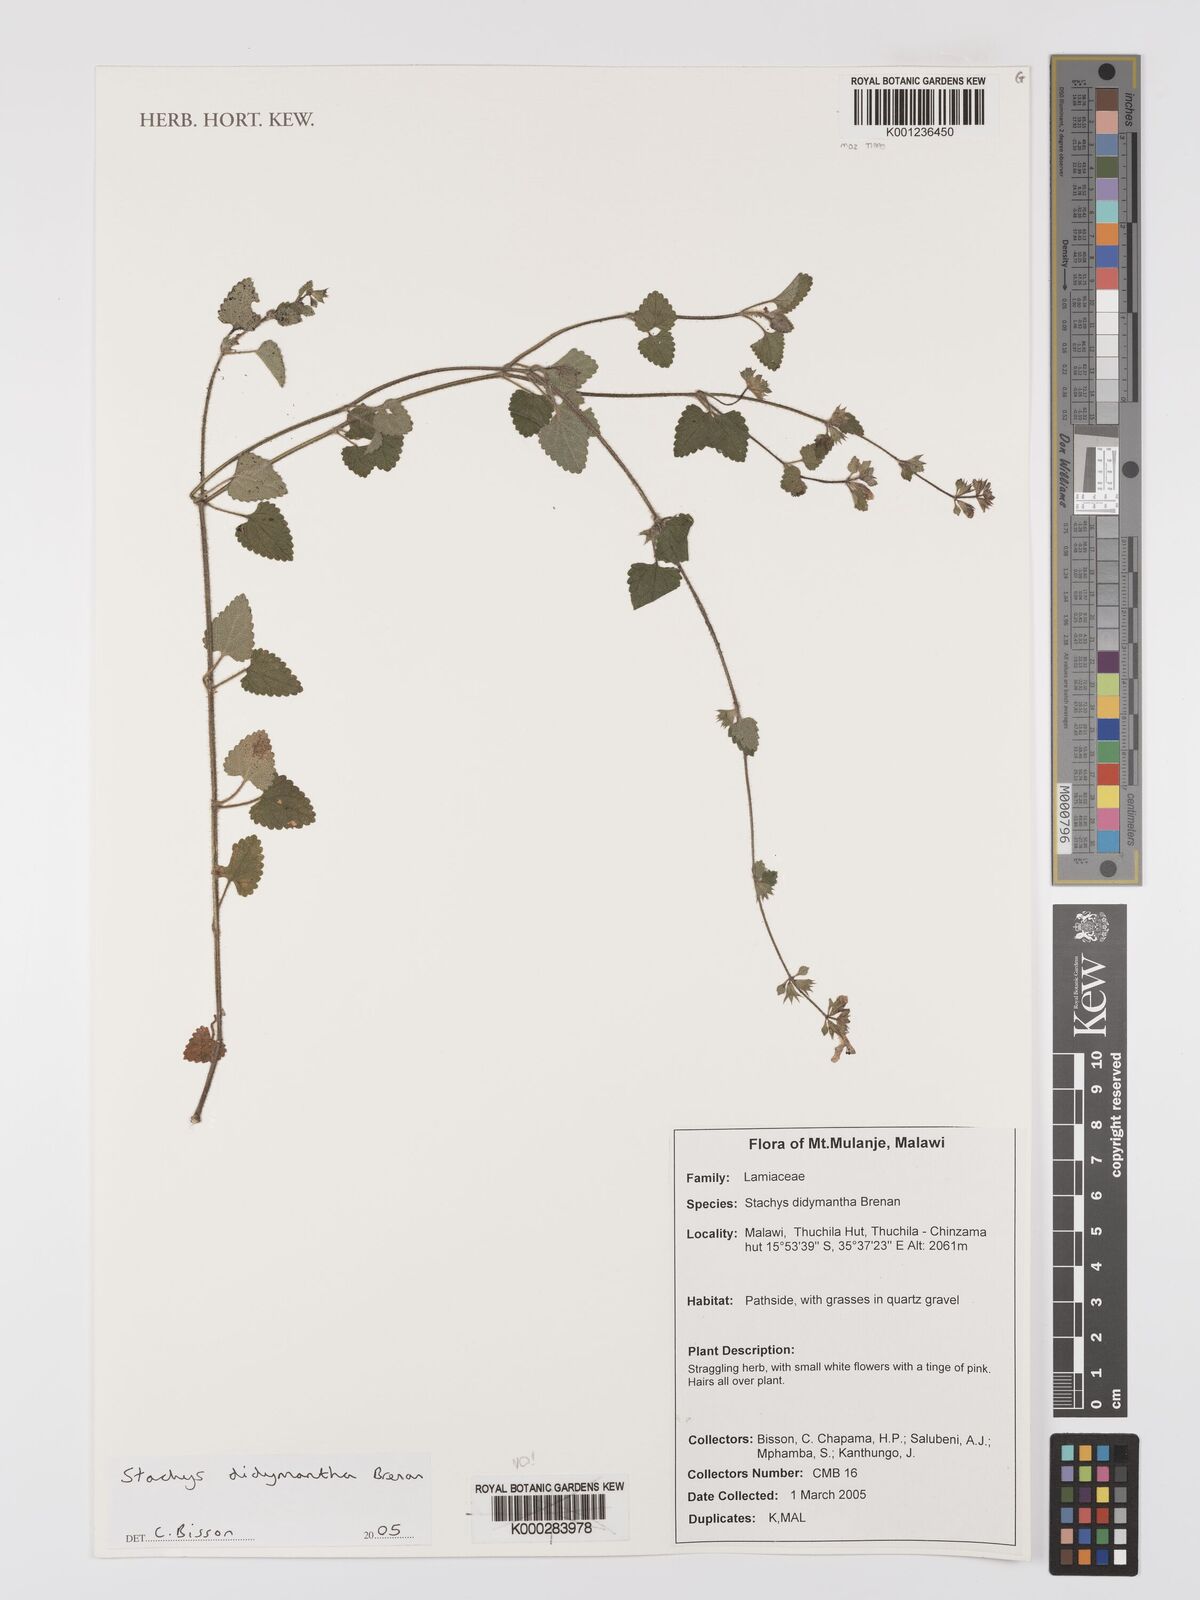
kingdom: Plantae
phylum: Tracheophyta
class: Magnoliopsida
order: Lamiales
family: Lamiaceae
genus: Stachys
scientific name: Stachys didymantha
